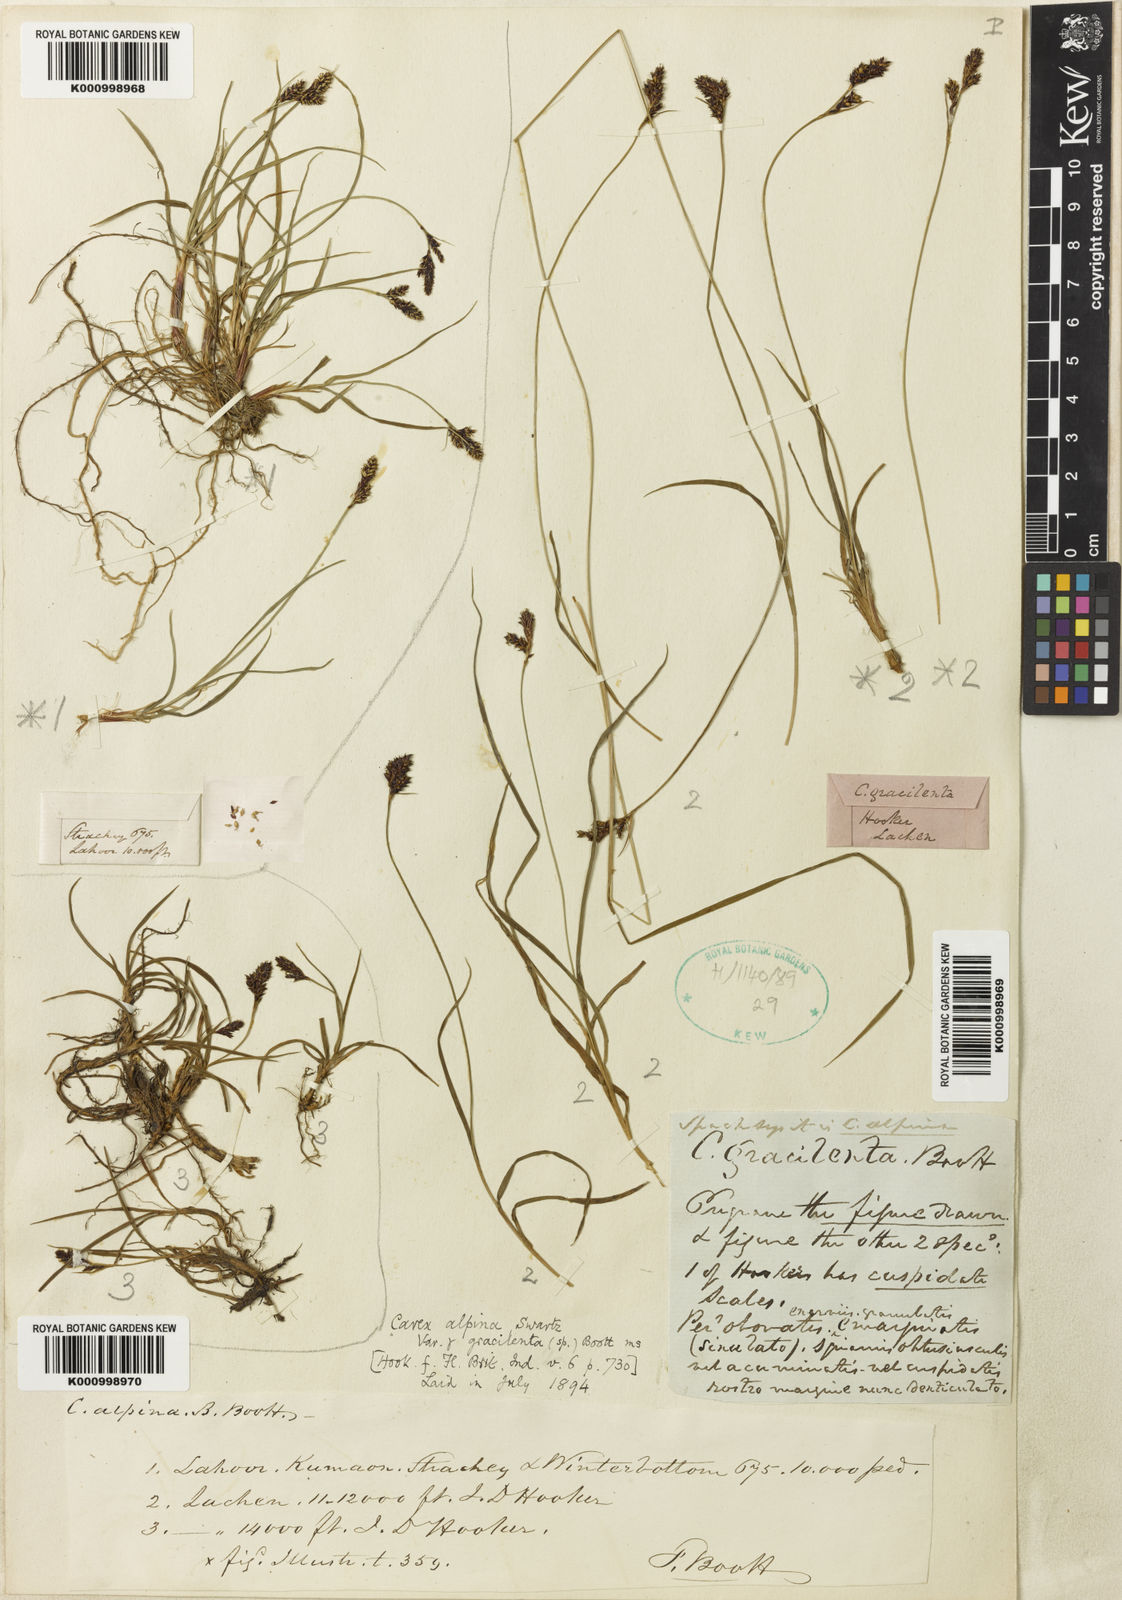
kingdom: Plantae
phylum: Tracheophyta
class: Liliopsida
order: Poales
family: Cyperaceae
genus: Carex
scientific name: Carex mackenziei
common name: Mackenzie's sedge
